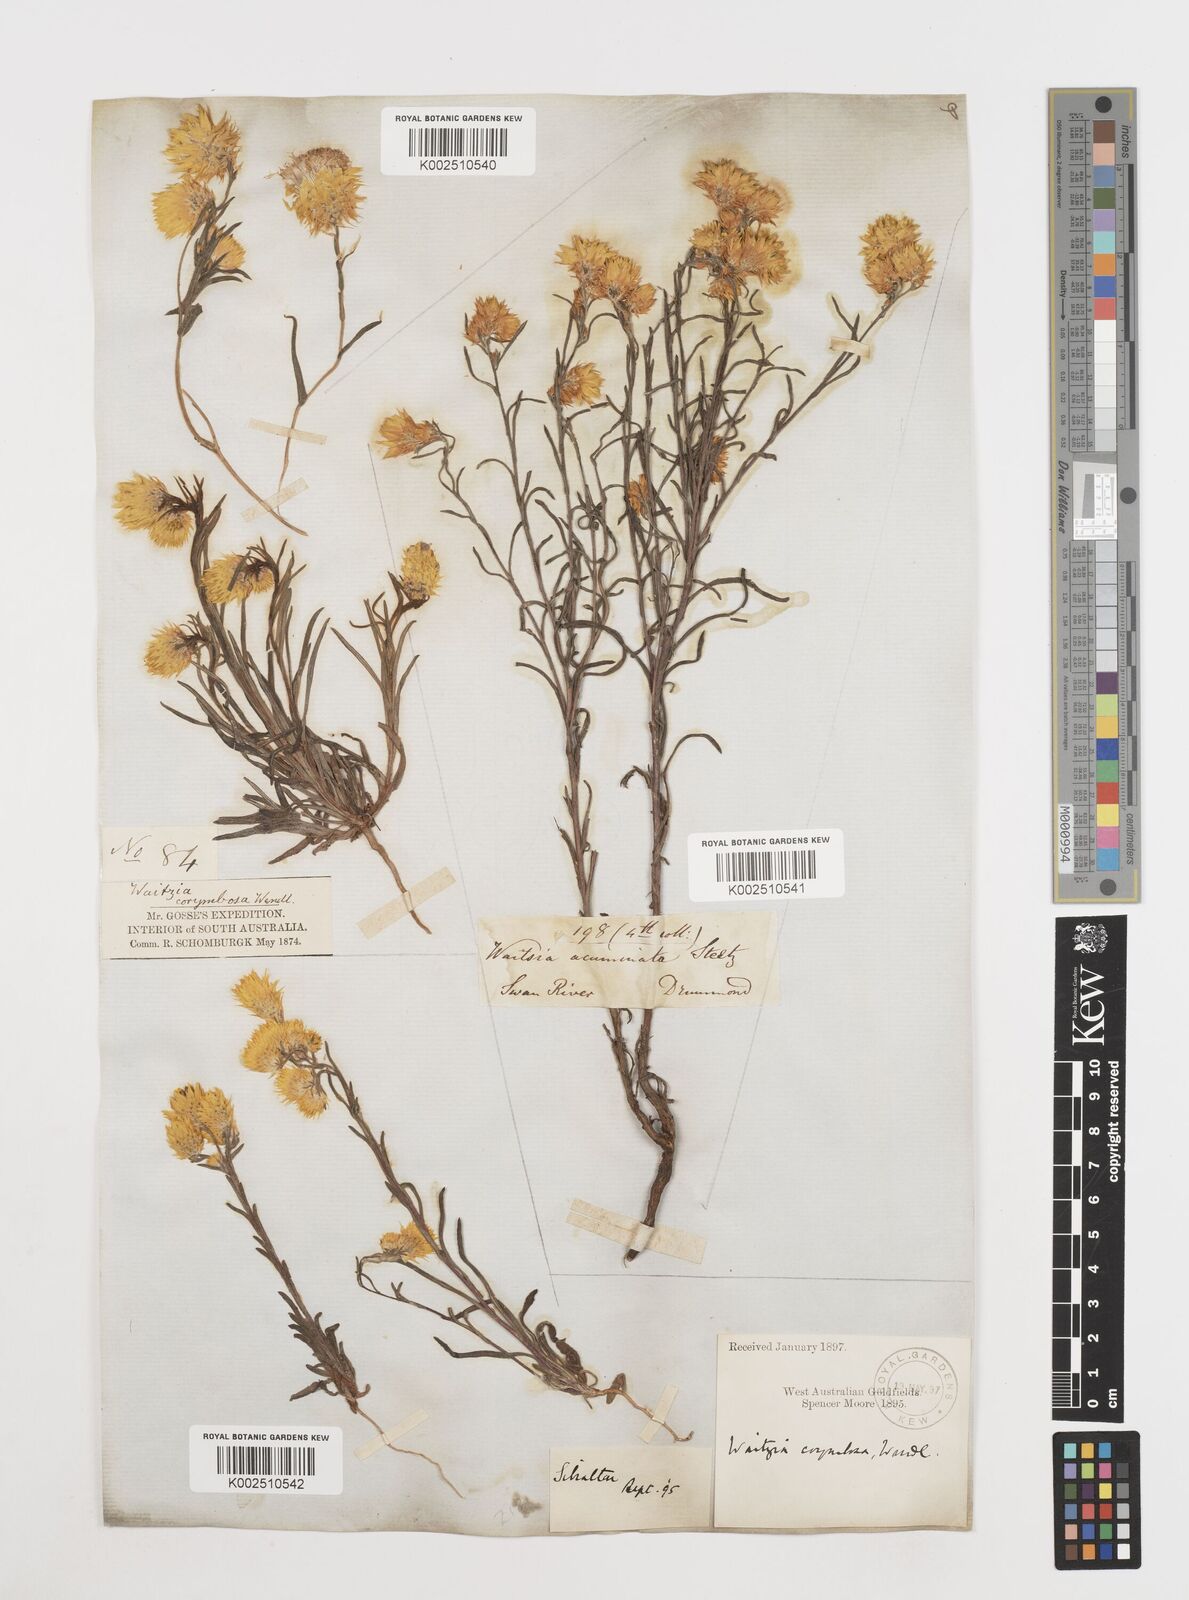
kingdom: Plantae
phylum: Tracheophyta
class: Magnoliopsida
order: Asterales
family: Asteraceae
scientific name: Asteraceae
